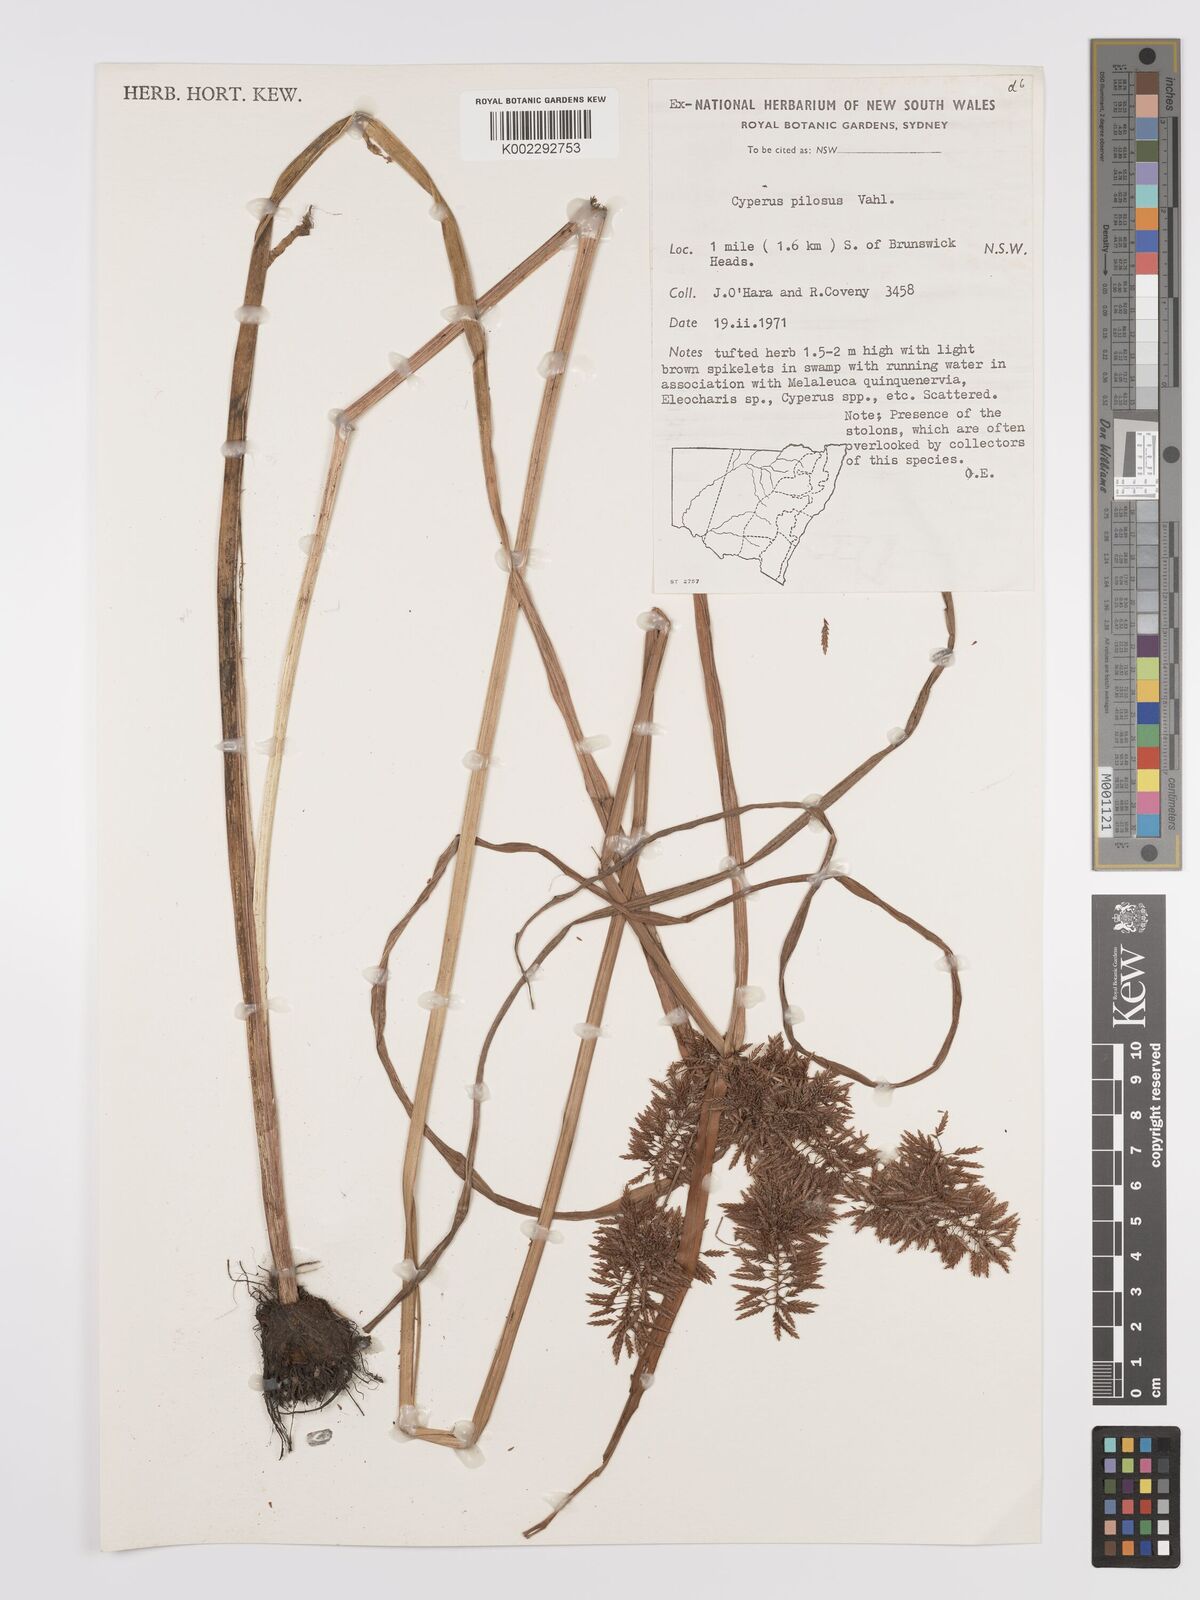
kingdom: Plantae
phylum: Tracheophyta
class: Liliopsida
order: Poales
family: Cyperaceae
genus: Cyperus
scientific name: Cyperus pilosus
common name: Fuzzy flatsedge
